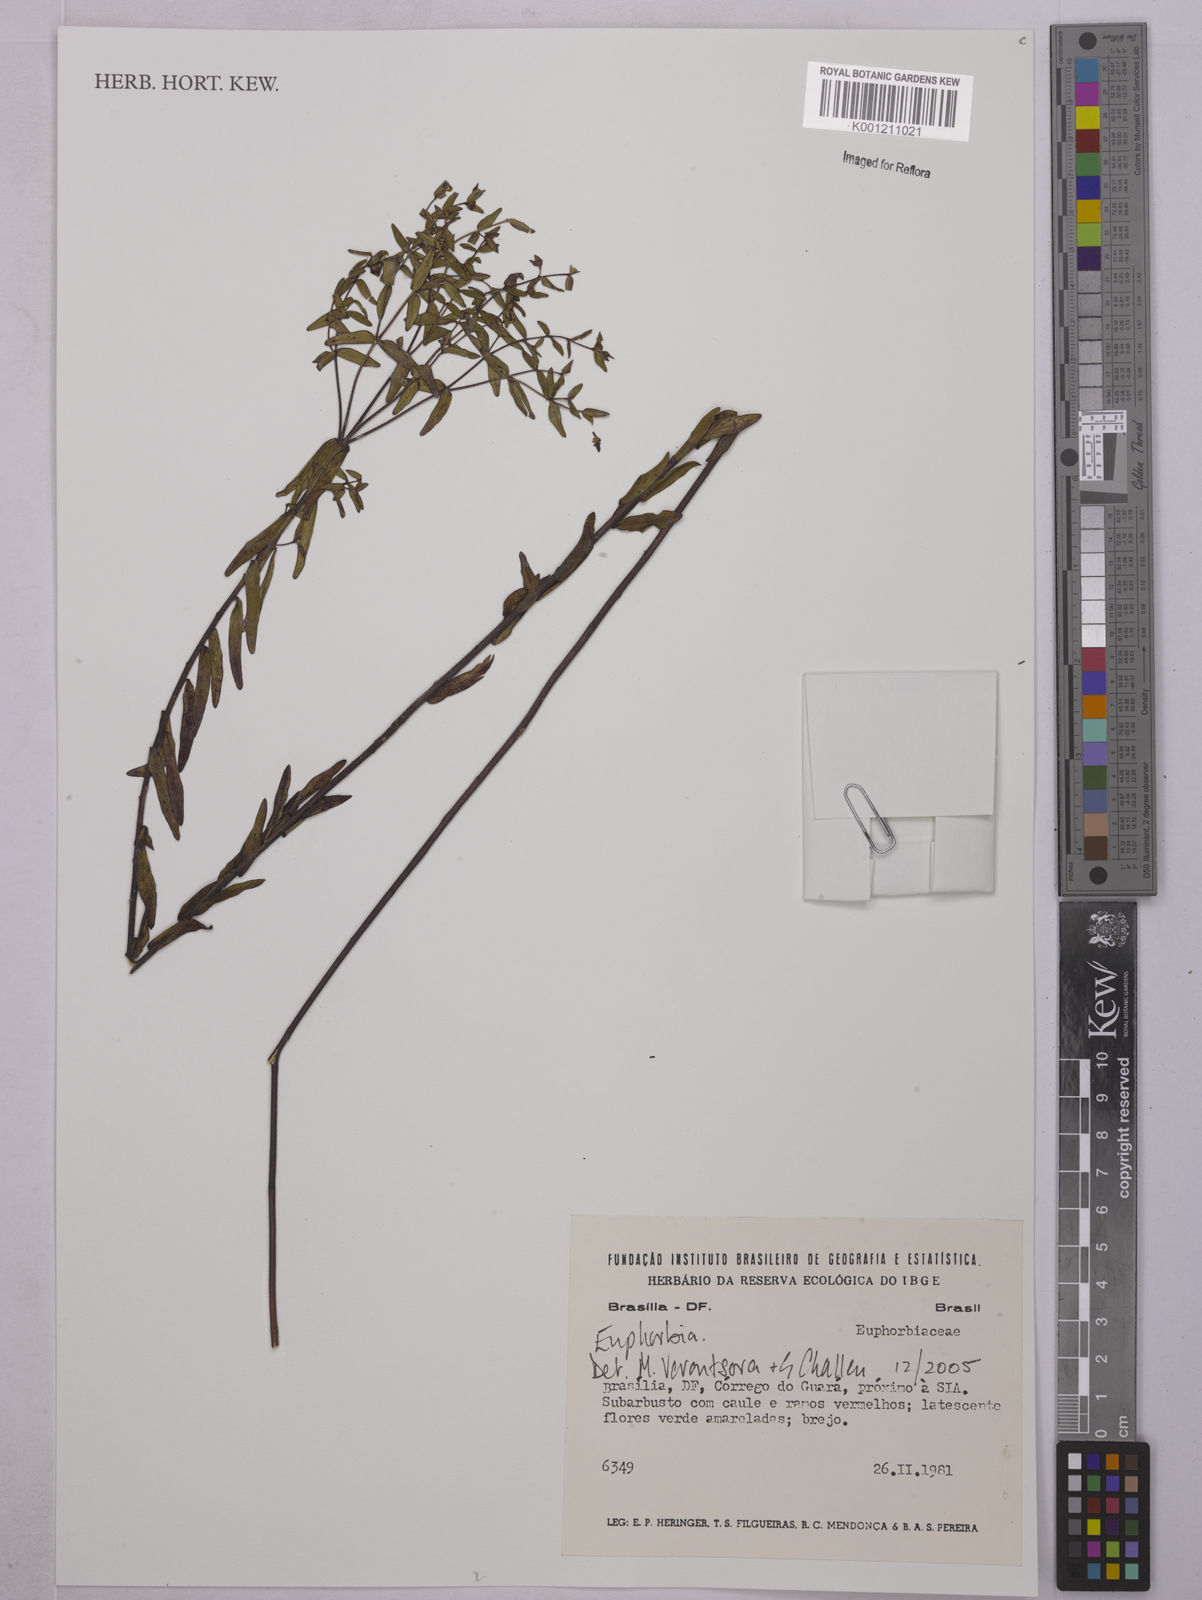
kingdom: Plantae
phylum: Tracheophyta
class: Magnoliopsida
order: Malpighiales
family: Euphorbiaceae
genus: Euphorbia
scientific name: Euphorbia
